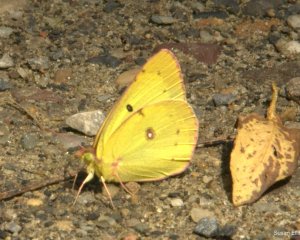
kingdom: Animalia
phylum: Arthropoda
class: Insecta
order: Lepidoptera
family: Pieridae
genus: Colias
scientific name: Colias
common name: Clouded Yellows
